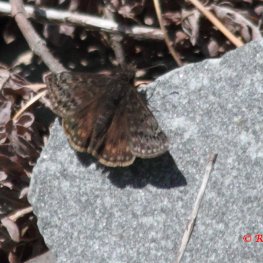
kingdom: Animalia
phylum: Arthropoda
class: Insecta
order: Lepidoptera
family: Hesperiidae
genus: Gesta
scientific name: Gesta
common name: Juvenal's Duskywing
